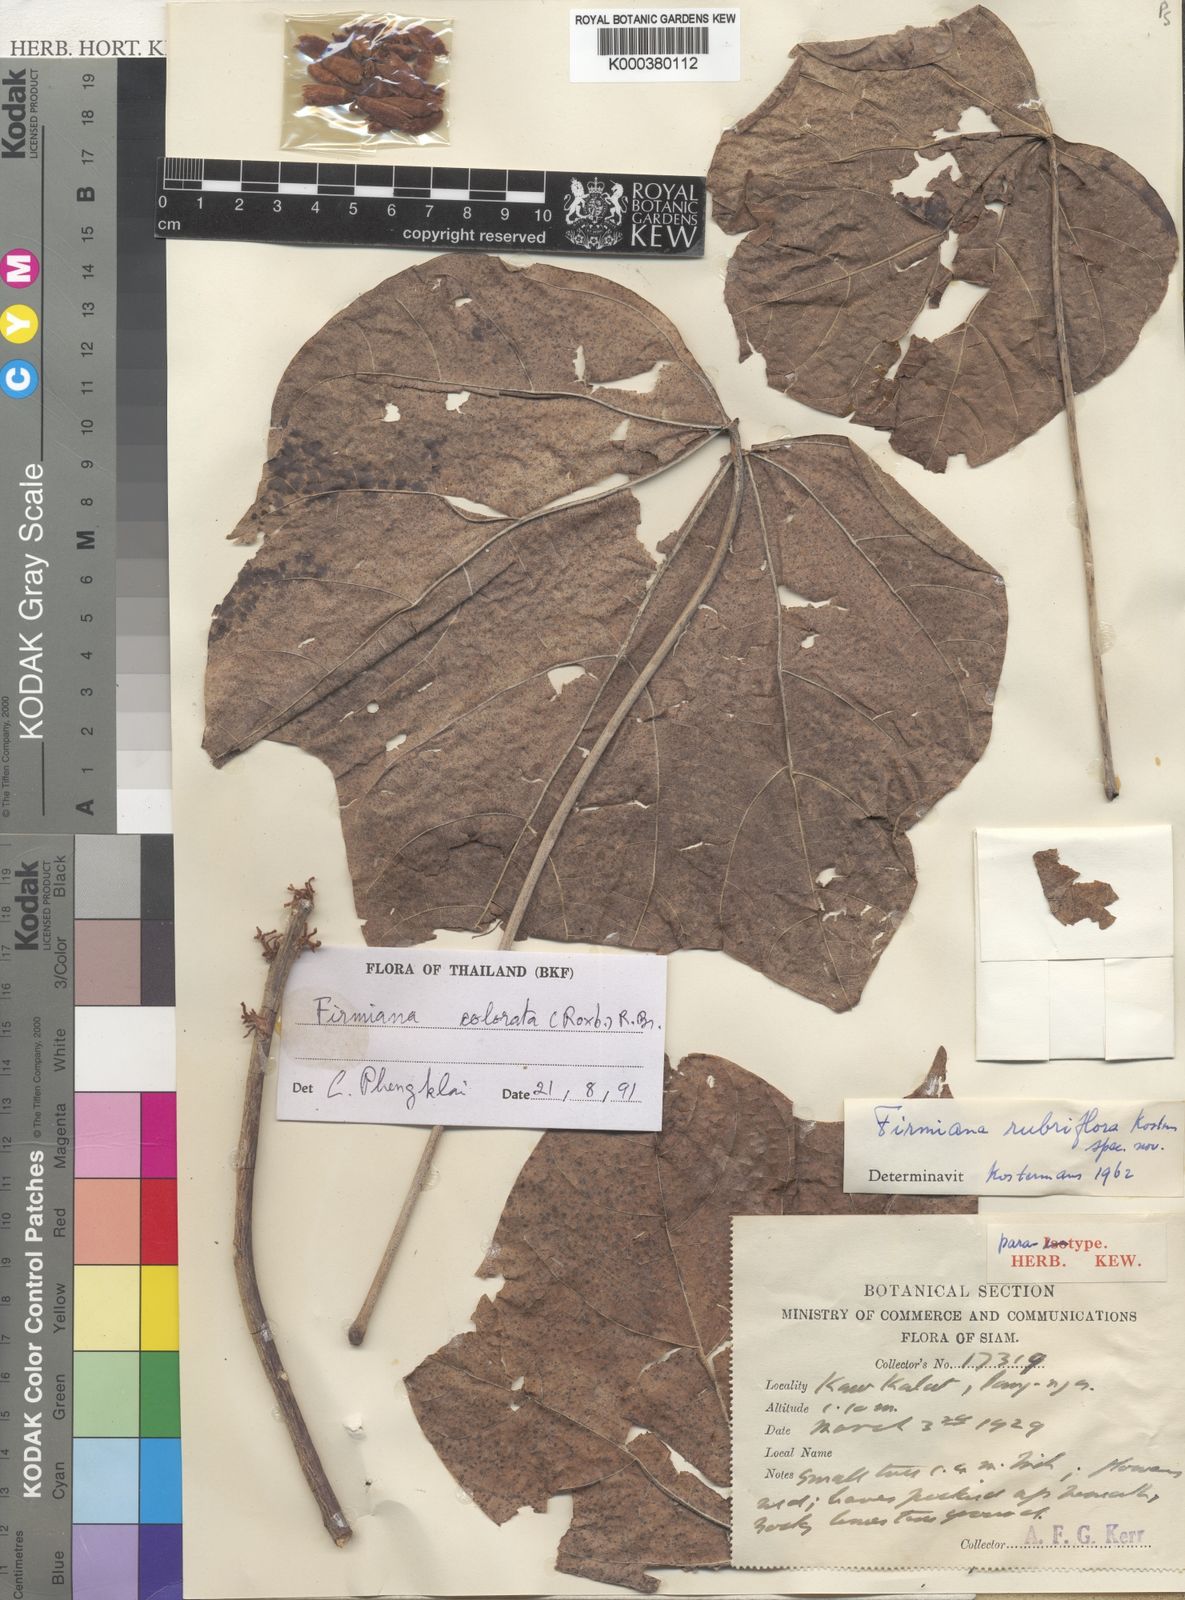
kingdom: Plantae
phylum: Tracheophyta
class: Magnoliopsida
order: Malvales
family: Malvaceae
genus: Firmiana
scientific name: Firmiana colorata
